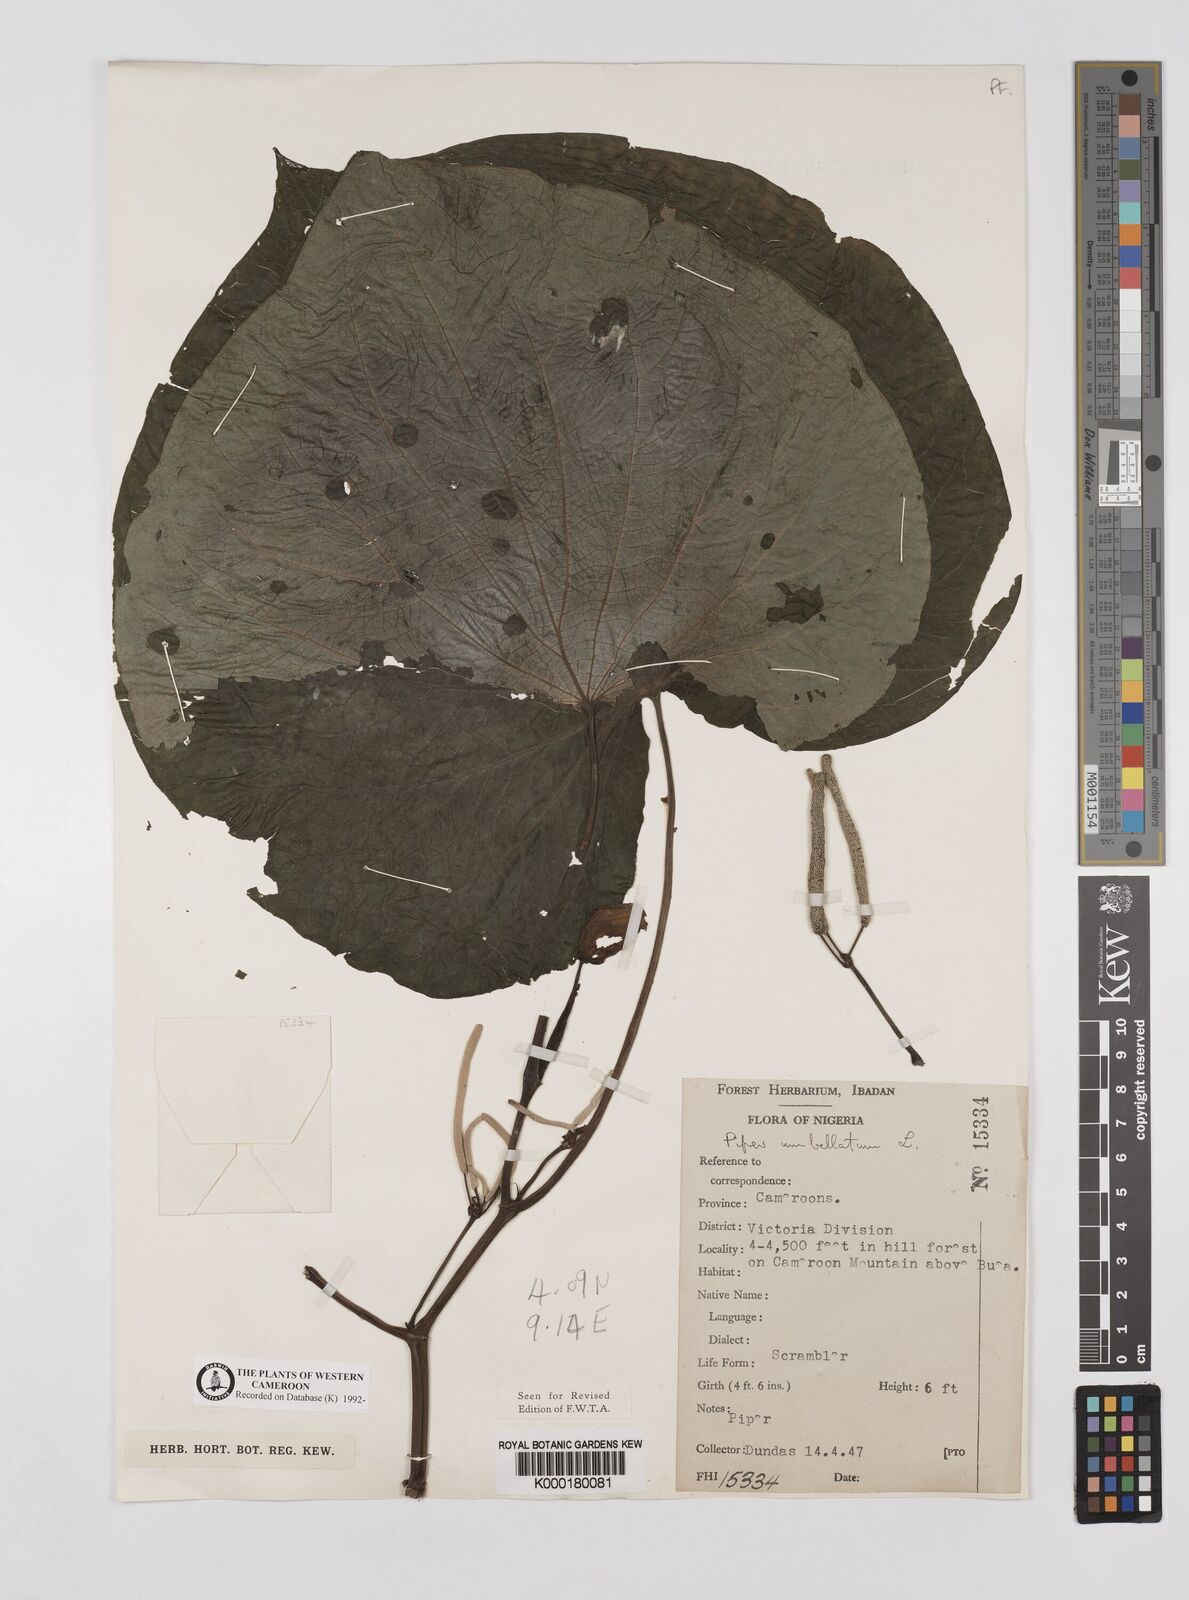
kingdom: Plantae
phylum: Tracheophyta
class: Magnoliopsida
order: Piperales
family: Piperaceae
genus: Piper
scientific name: Piper umbellatum
